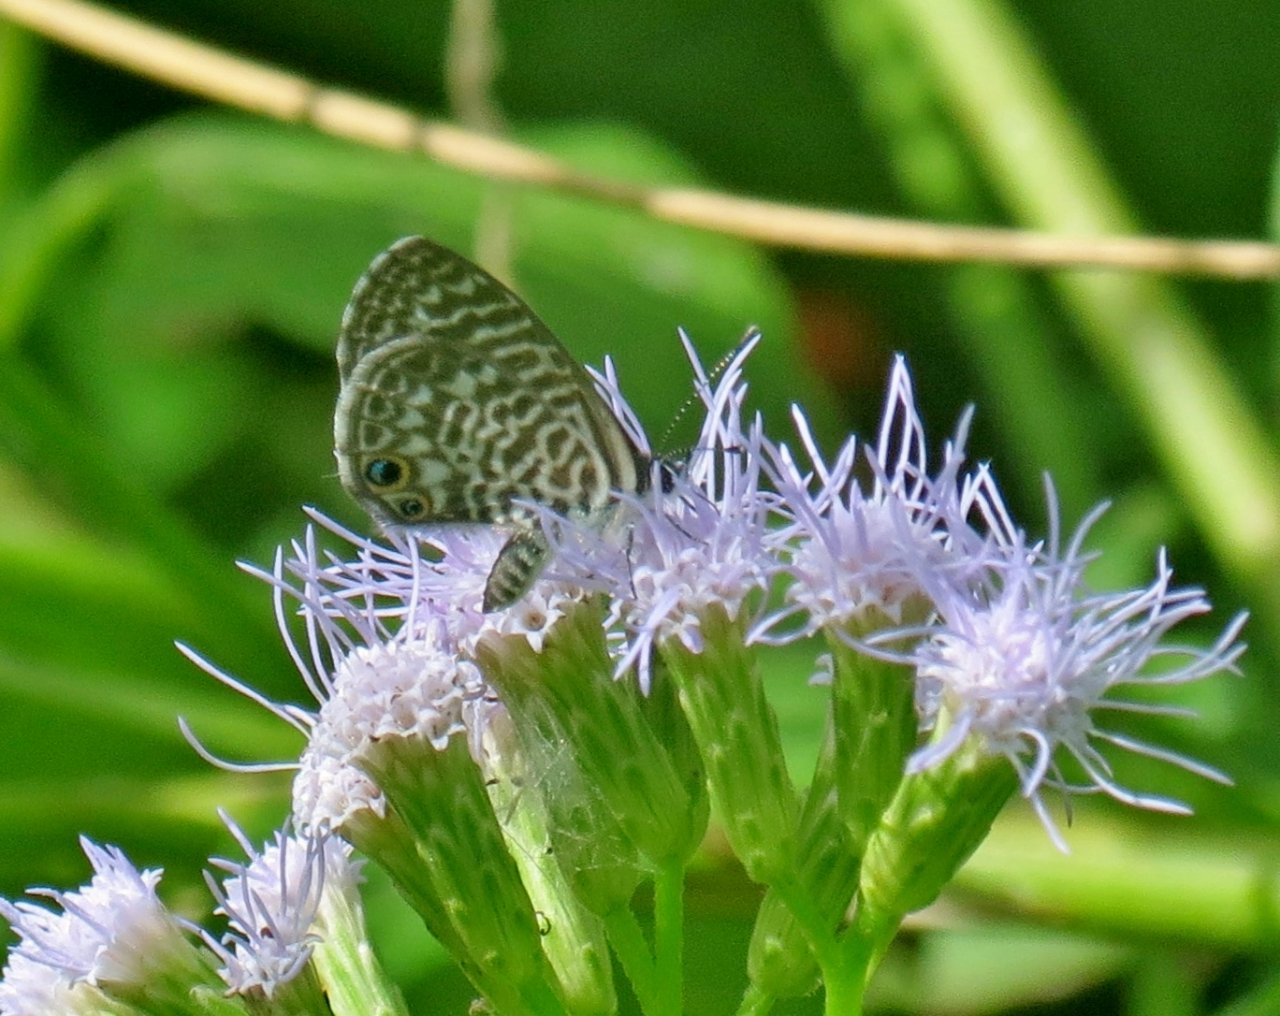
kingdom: Animalia
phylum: Arthropoda
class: Insecta
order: Lepidoptera
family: Lycaenidae
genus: Leptotes
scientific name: Leptotes marina
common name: Marine Blue
